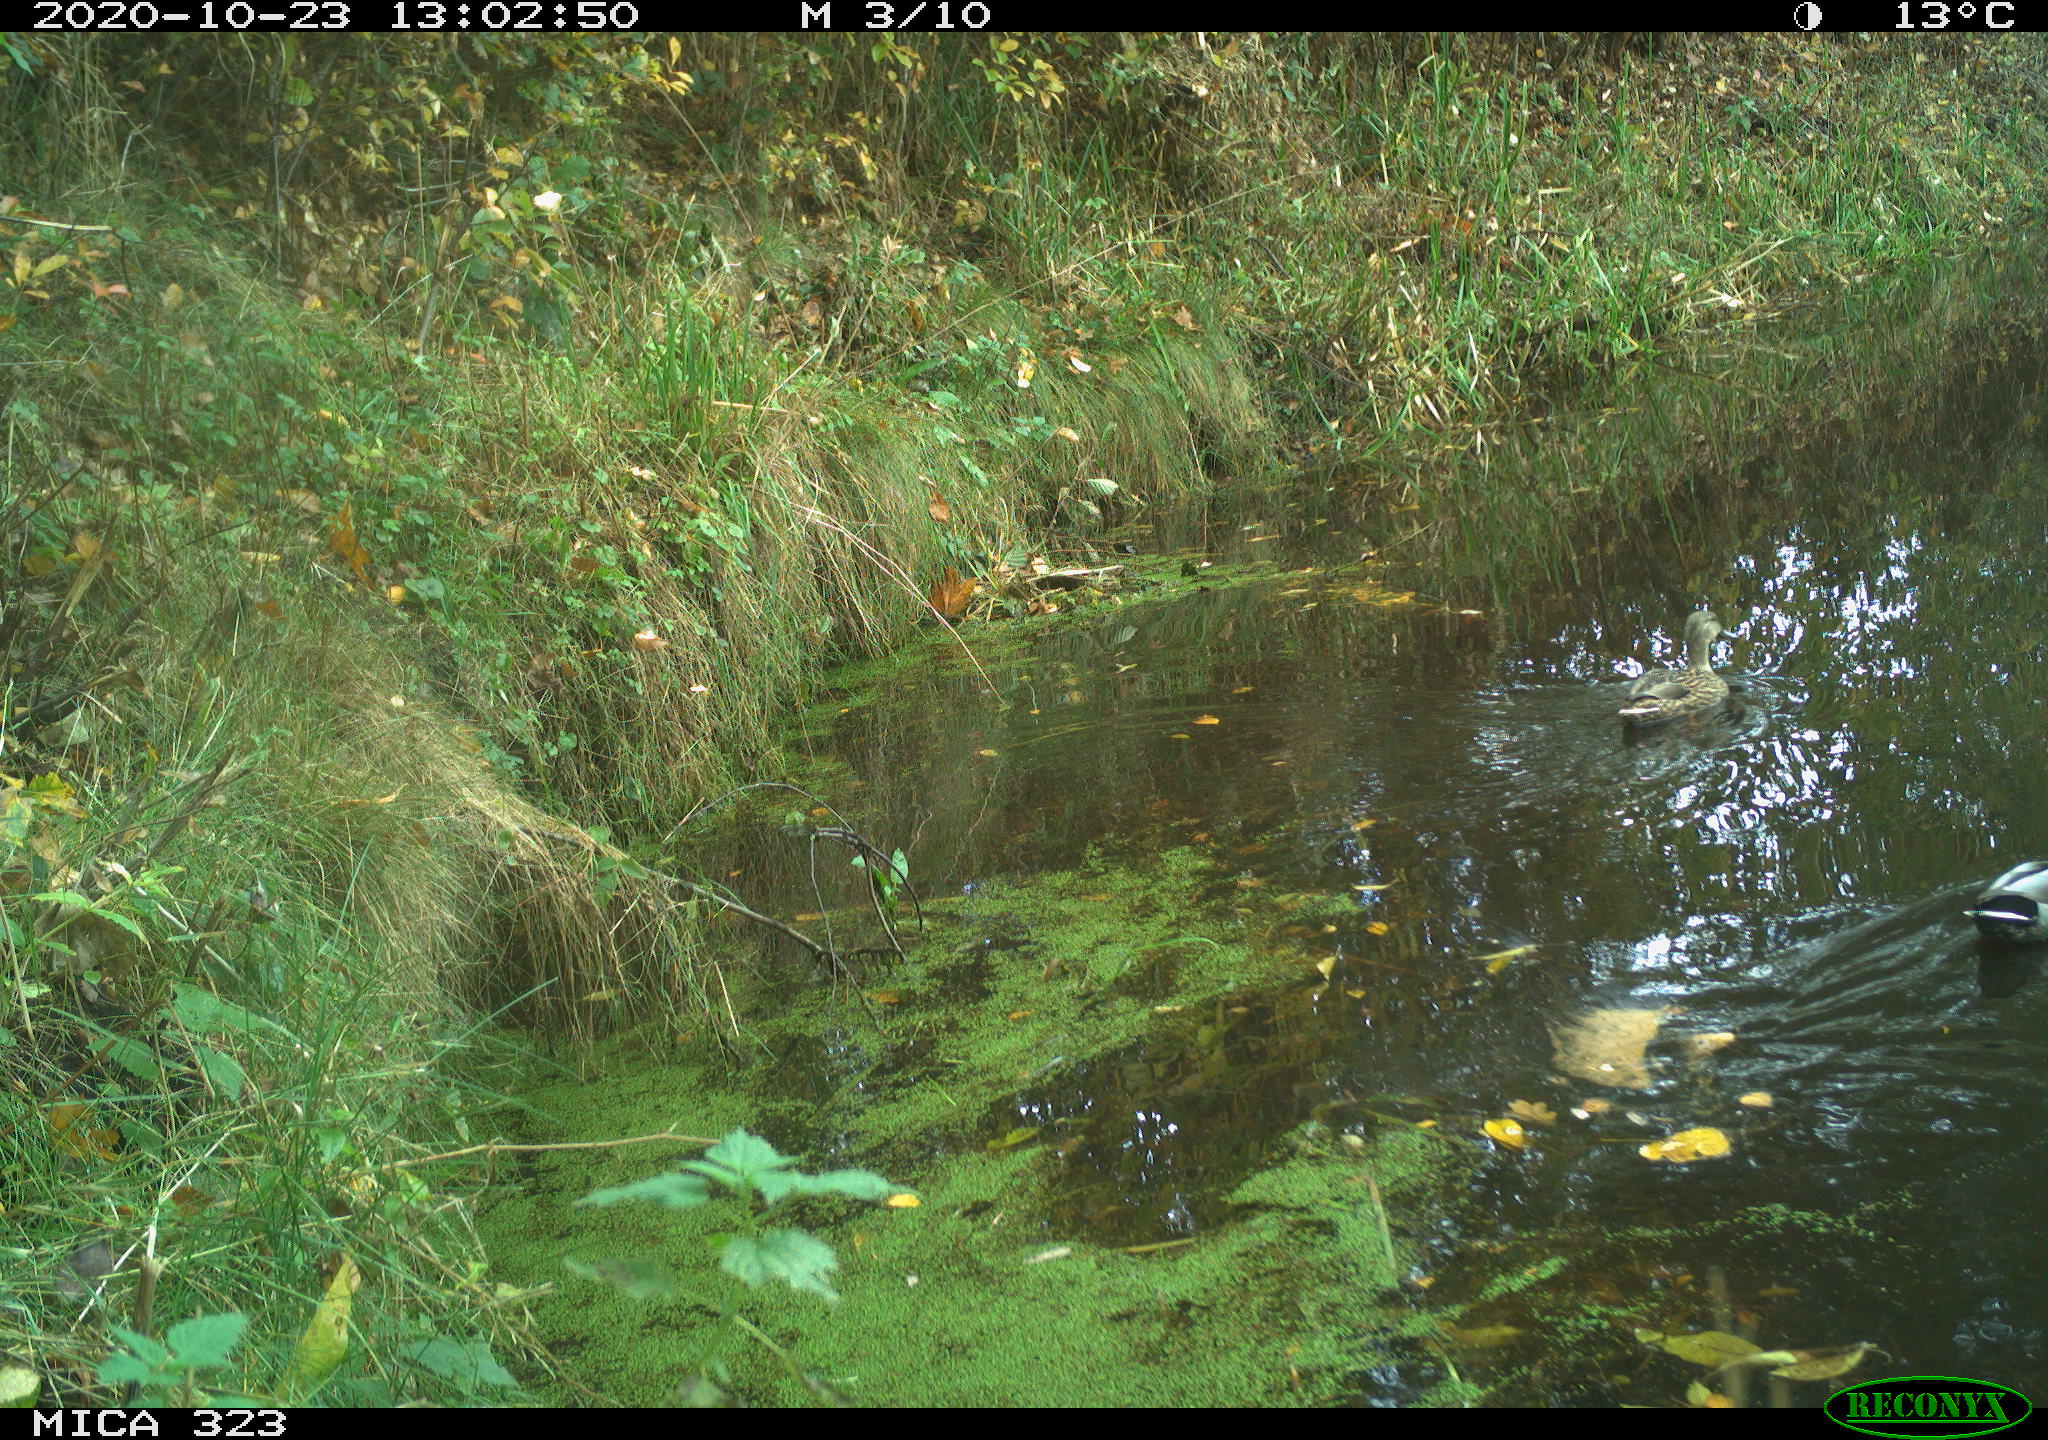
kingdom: Animalia
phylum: Chordata
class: Aves
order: Anseriformes
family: Anatidae
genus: Anas
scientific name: Anas platyrhynchos
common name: Mallard
